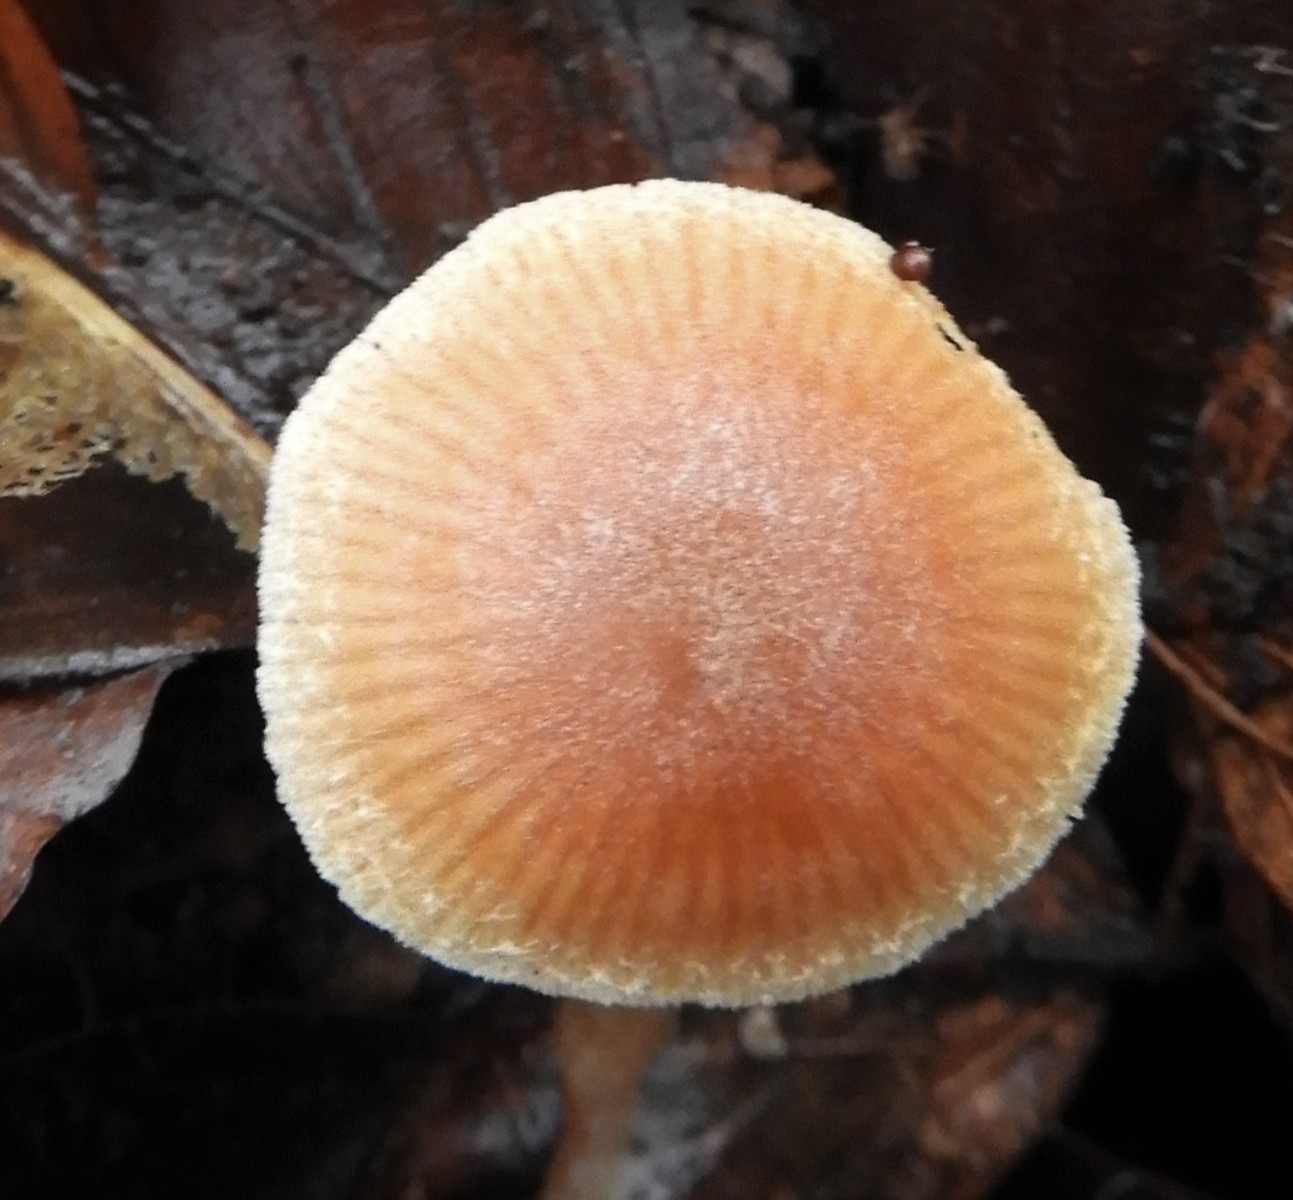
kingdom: Fungi
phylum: Basidiomycota
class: Agaricomycetes
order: Agaricales
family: Tubariaceae
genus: Tubaria
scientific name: Tubaria furfuracea
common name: kliddet fnughat
